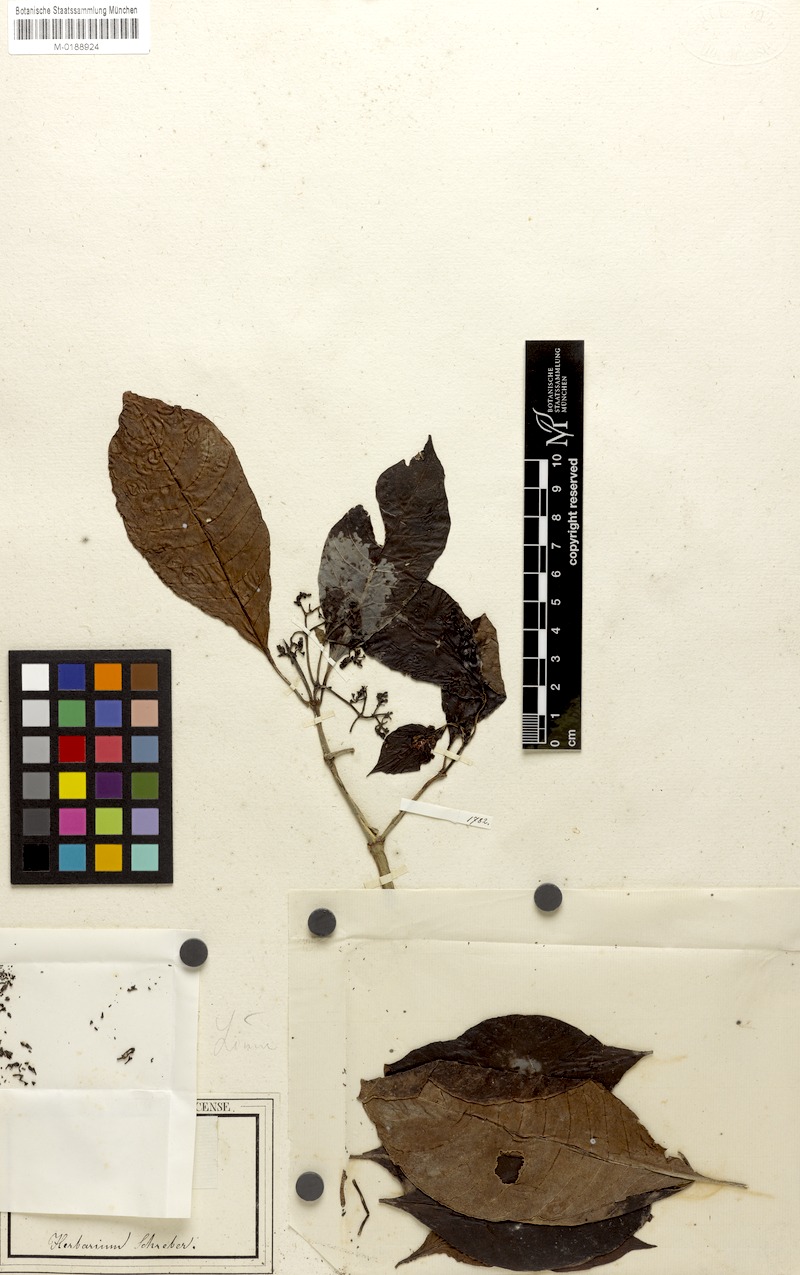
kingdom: Plantae
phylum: Tracheophyta
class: Magnoliopsida
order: Gentianales
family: Rubiaceae
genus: Psychotria
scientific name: Psychotria asiatica
